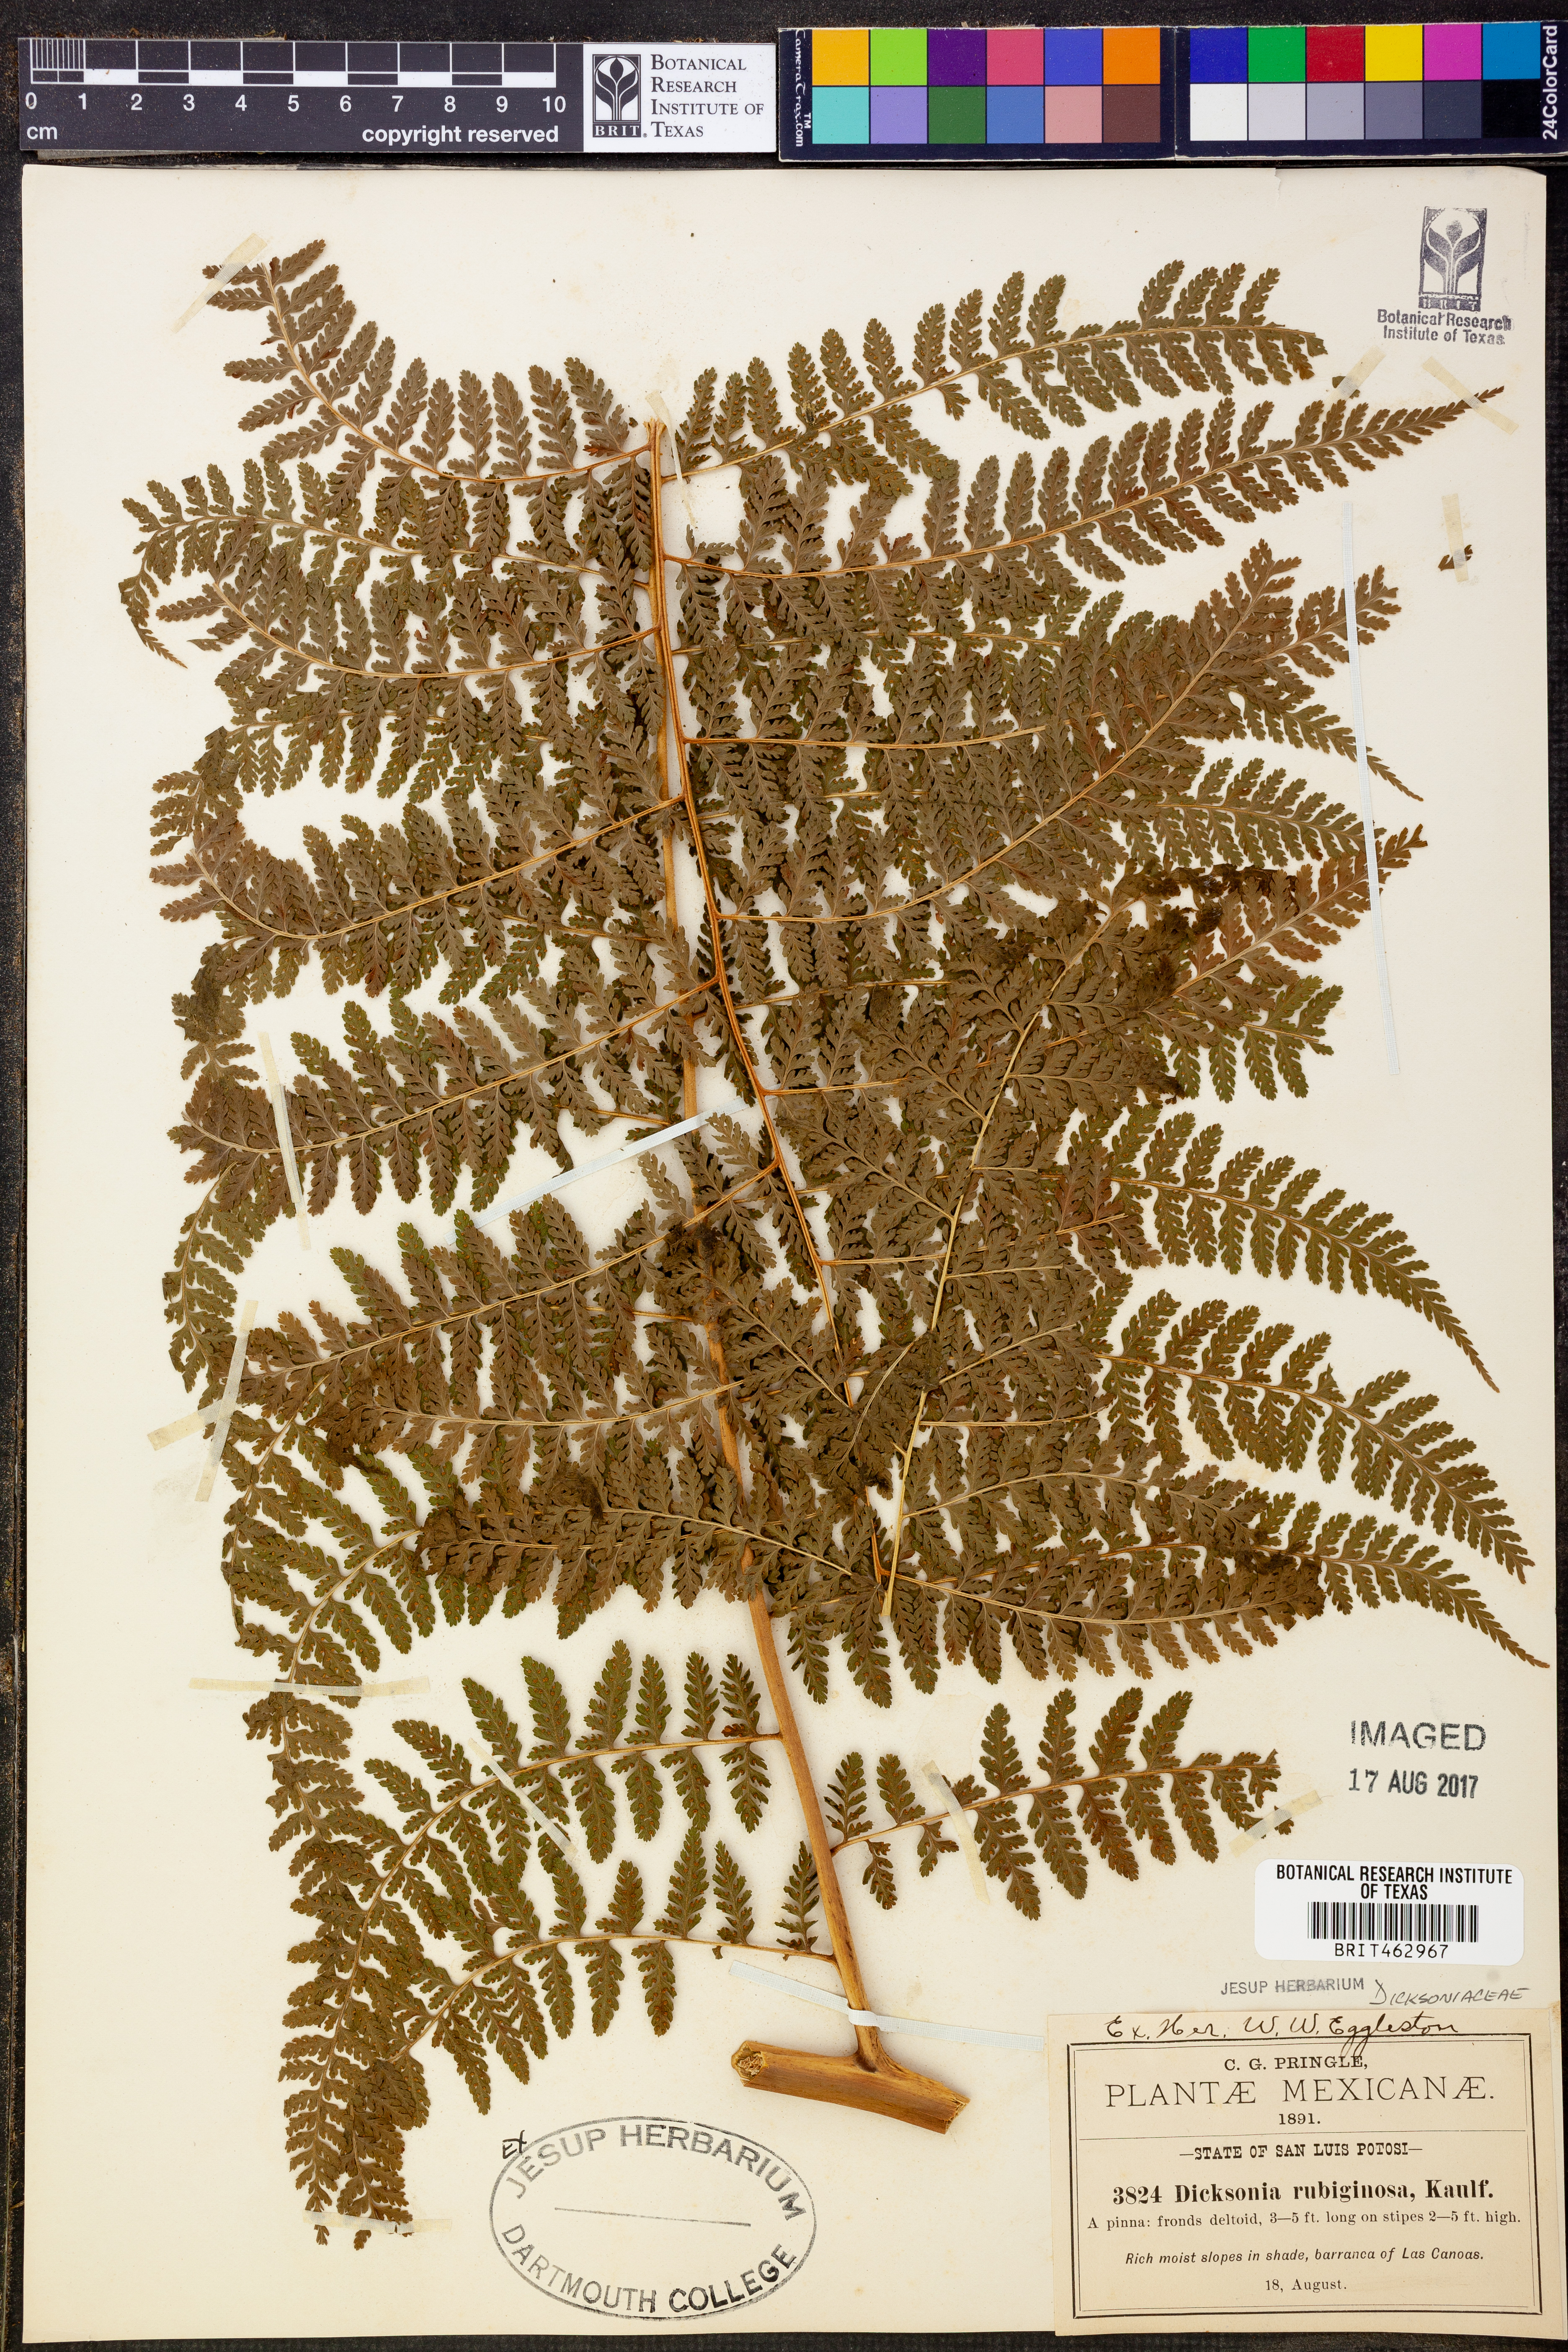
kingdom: Plantae
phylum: Tracheophyta
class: Polypodiopsida
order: Polypodiales
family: Dennstaedtiaceae
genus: Dennstaedtia
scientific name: Dennstaedtia cicutaria
